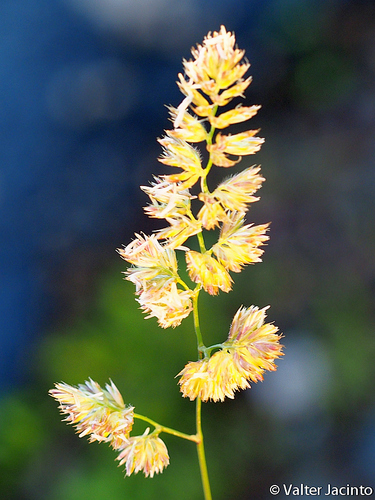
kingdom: Plantae
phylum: Tracheophyta
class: Liliopsida
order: Poales
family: Poaceae
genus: Dactylis
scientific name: Dactylis glomerata
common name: Orchardgrass
